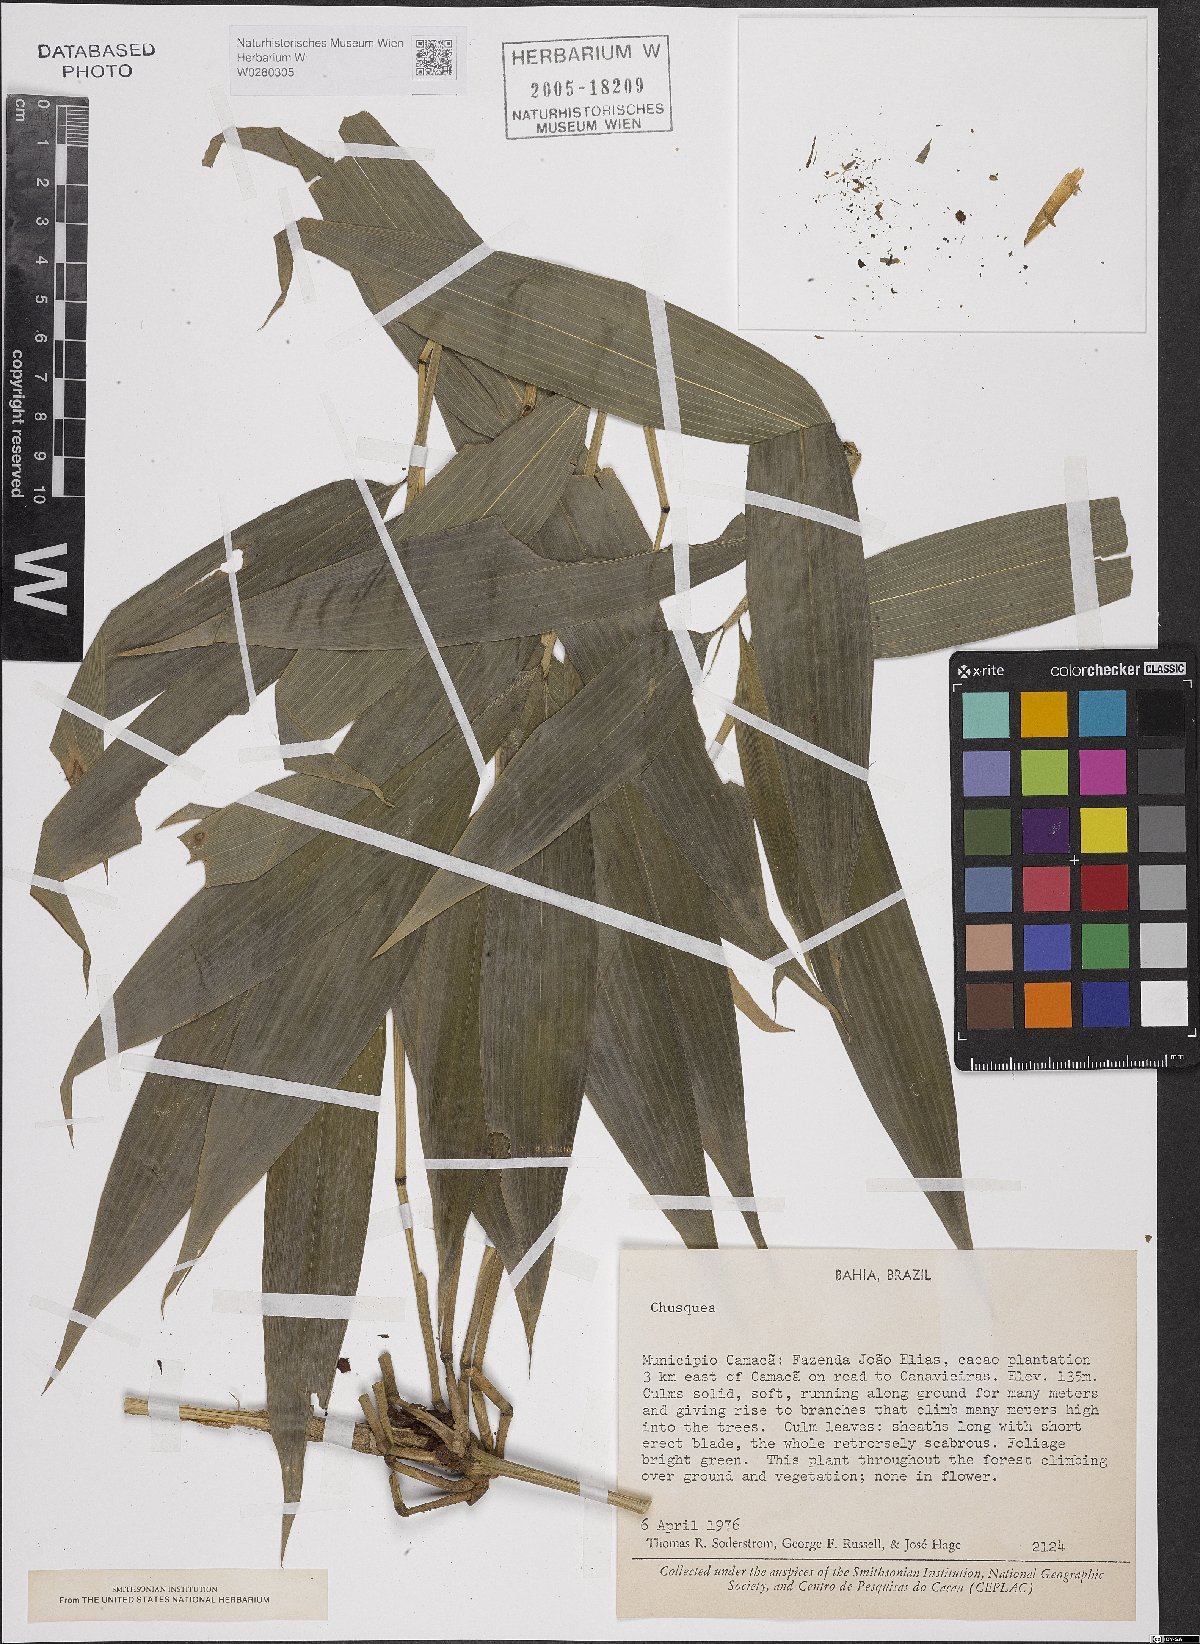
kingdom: Plantae
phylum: Tracheophyta
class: Liliopsida
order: Poales
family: Poaceae
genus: Chusquea
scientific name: Chusquea
